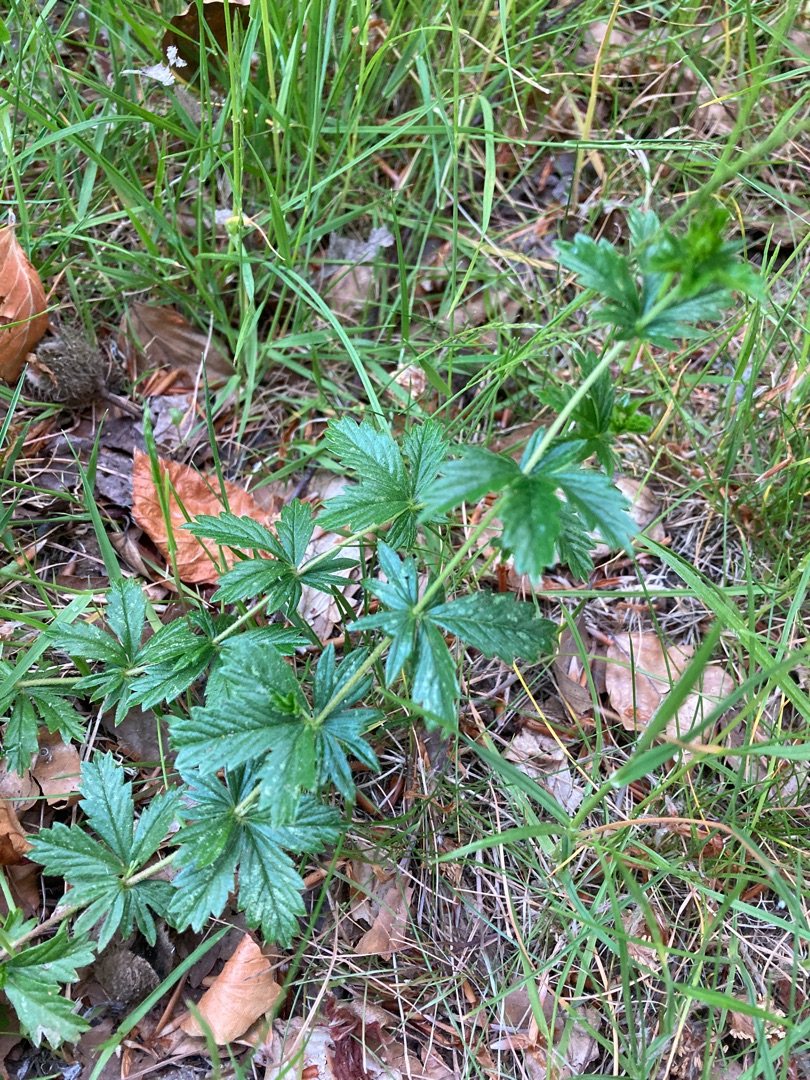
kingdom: Plantae
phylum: Tracheophyta
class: Magnoliopsida
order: Rosales
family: Rosaceae
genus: Potentilla
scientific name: Potentilla erecta
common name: Tormentil
